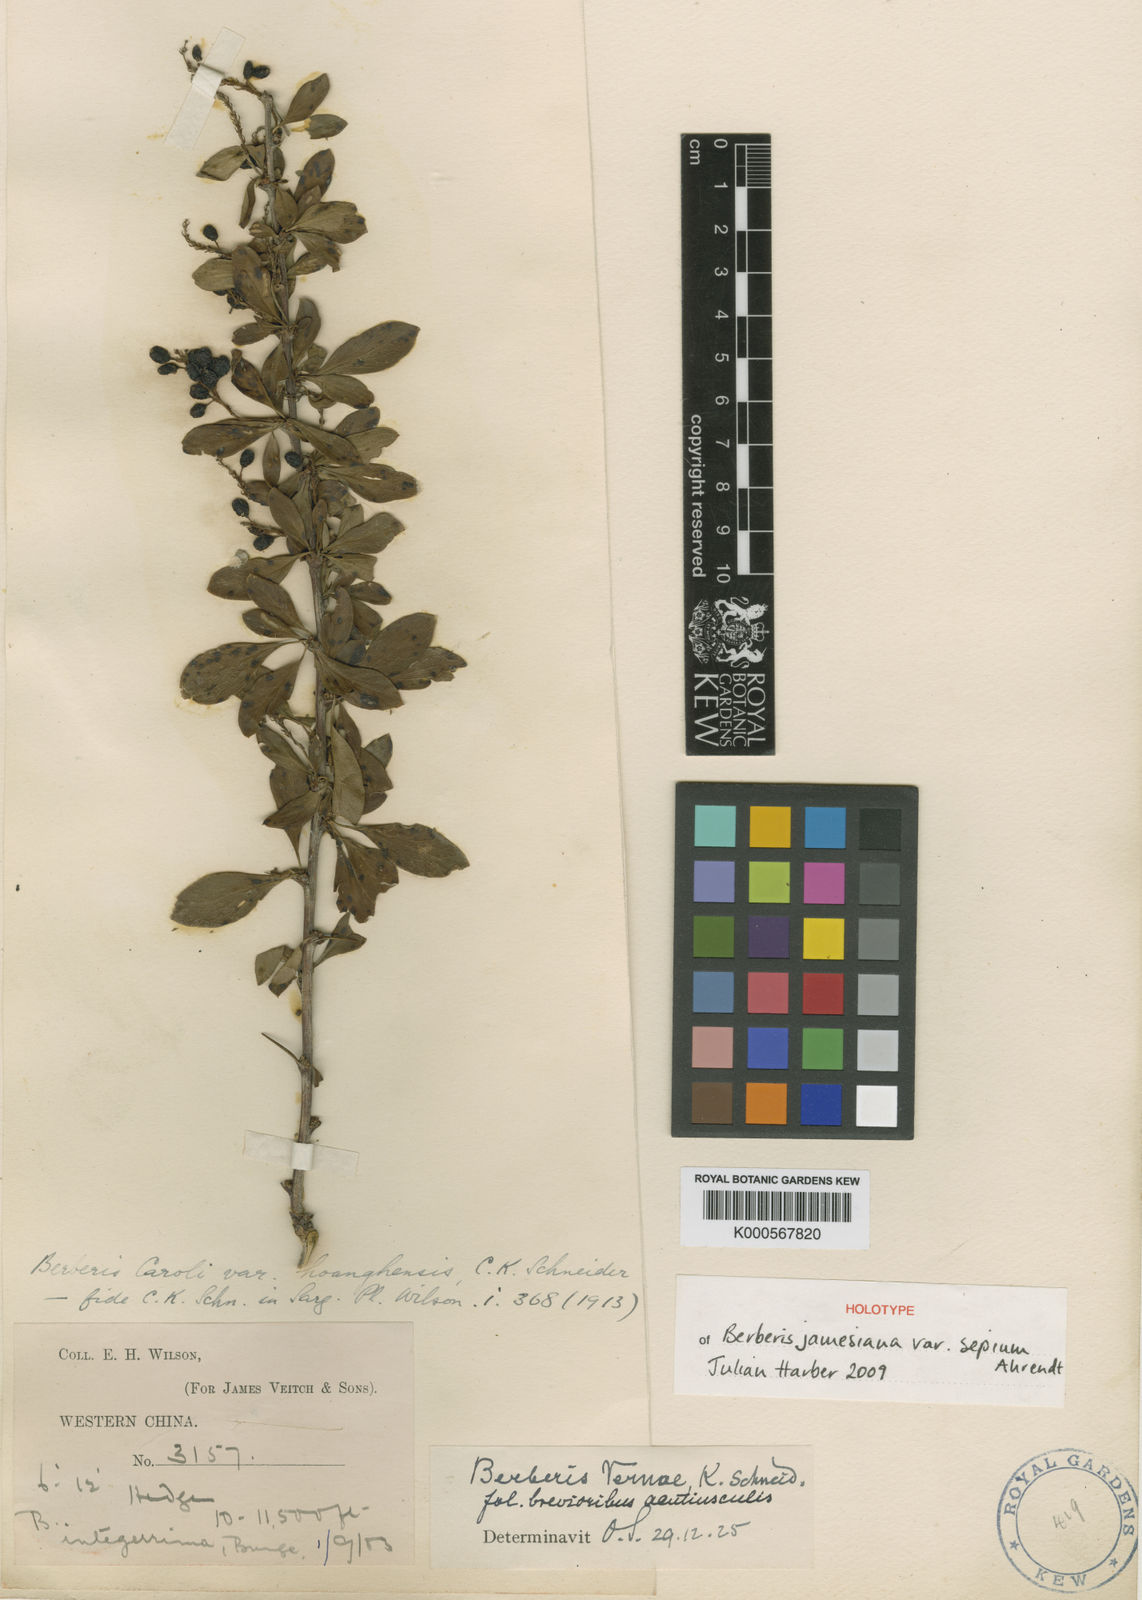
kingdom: Plantae
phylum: Tracheophyta
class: Magnoliopsida
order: Ranunculales
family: Berberidaceae
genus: Berberis
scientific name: Berberis caroli
